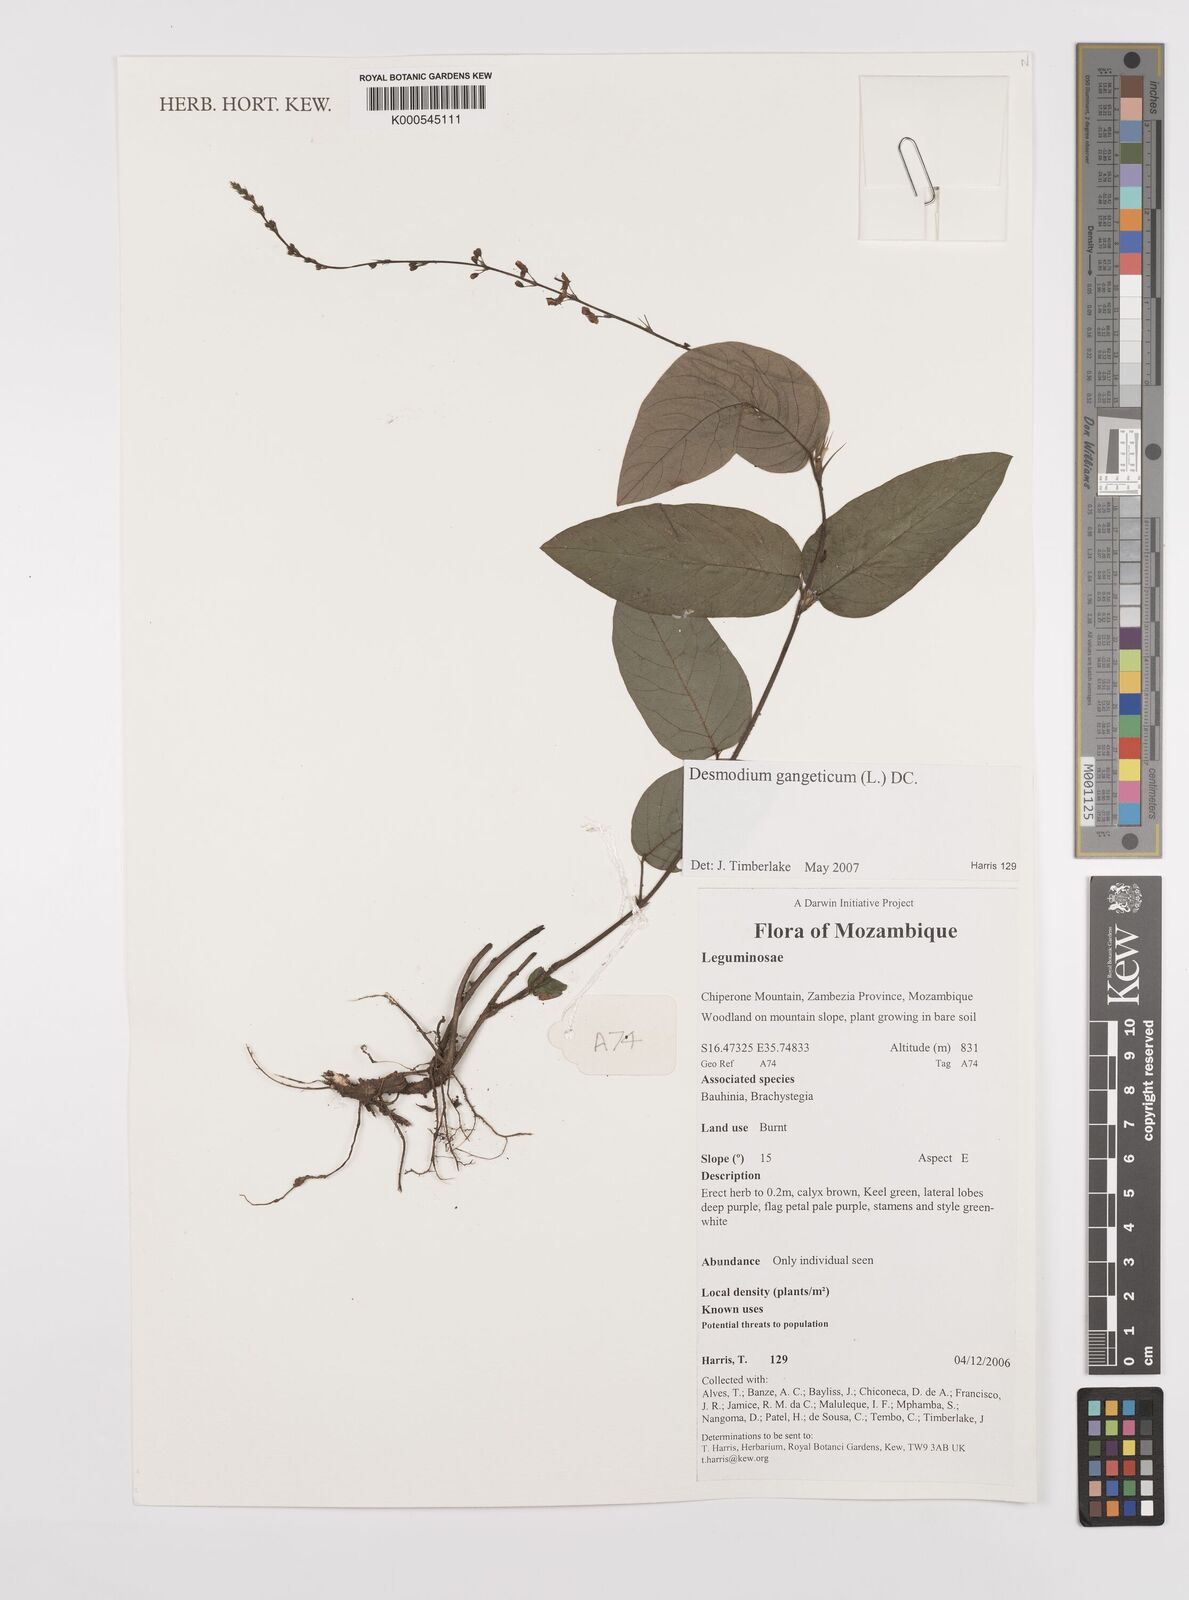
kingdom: Plantae
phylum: Tracheophyta
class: Magnoliopsida
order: Fabales
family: Fabaceae
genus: Pleurolobus
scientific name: Pleurolobus gangeticus
